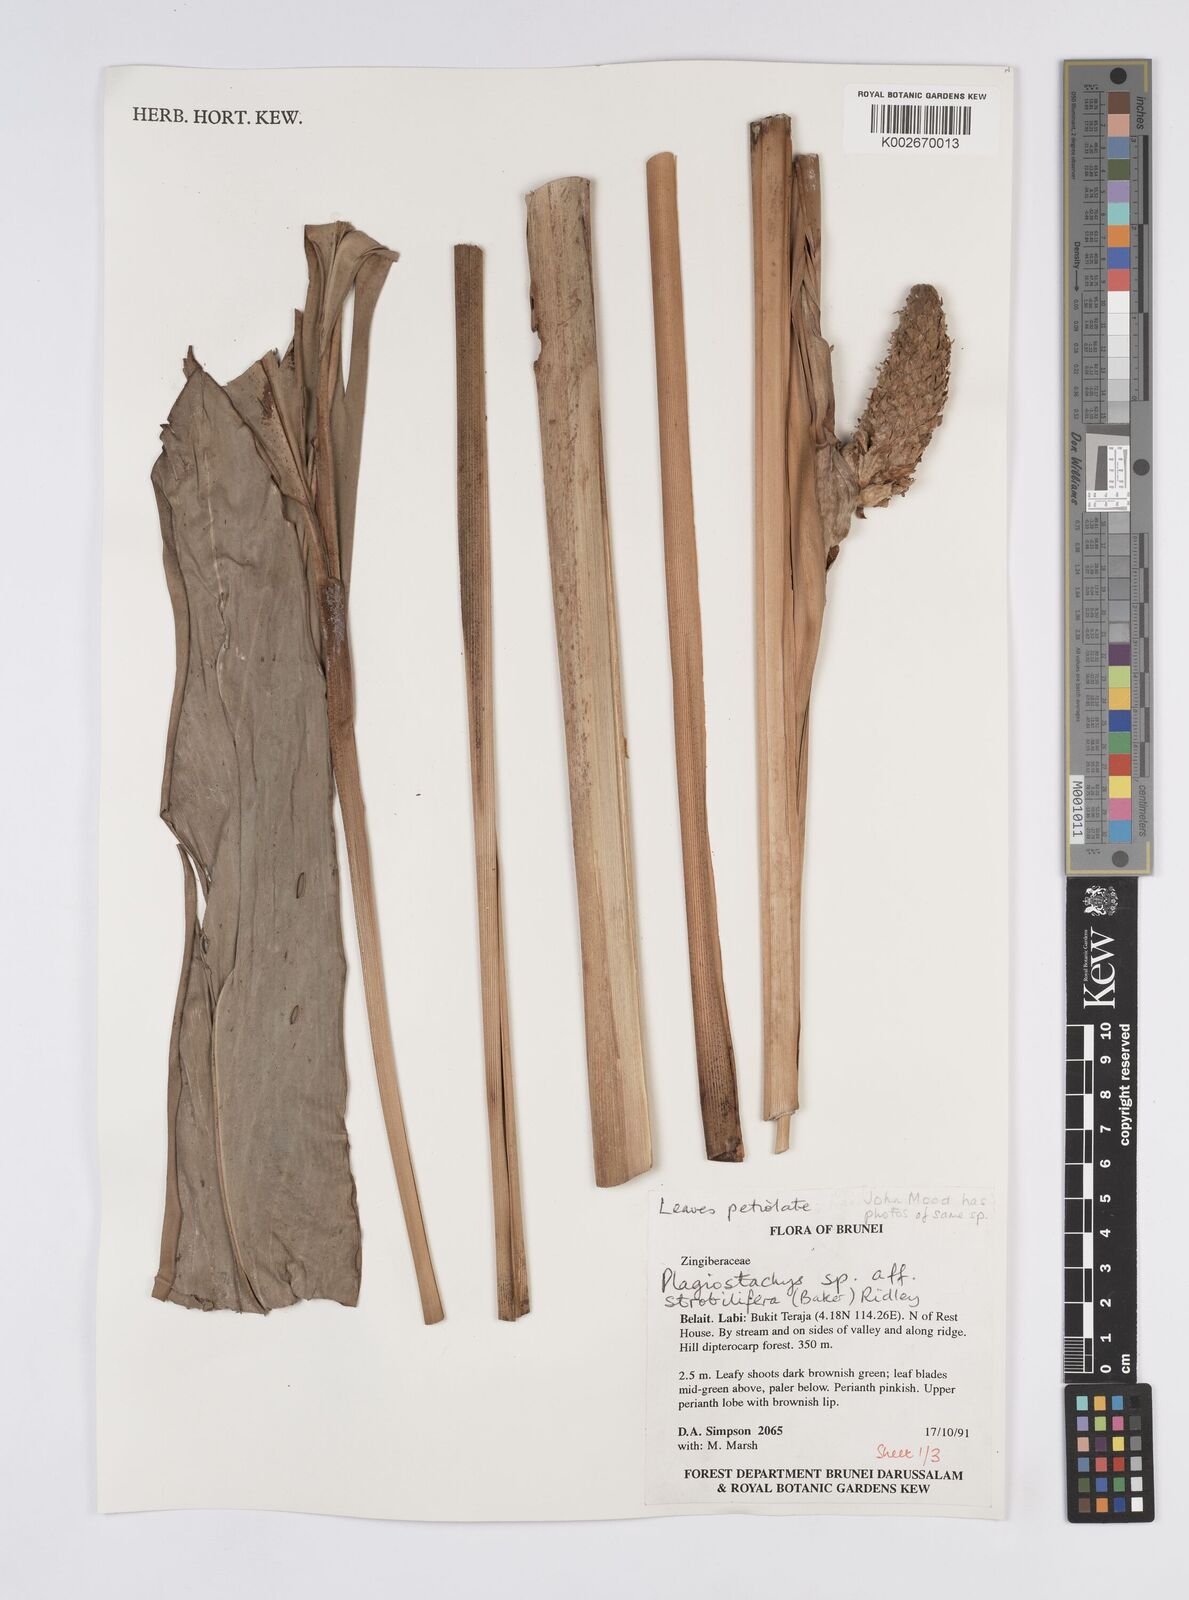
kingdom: Plantae
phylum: Tracheophyta
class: Liliopsida
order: Zingiberales
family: Zingiberaceae
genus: Plagiostachys
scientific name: Plagiostachys strobilifera
